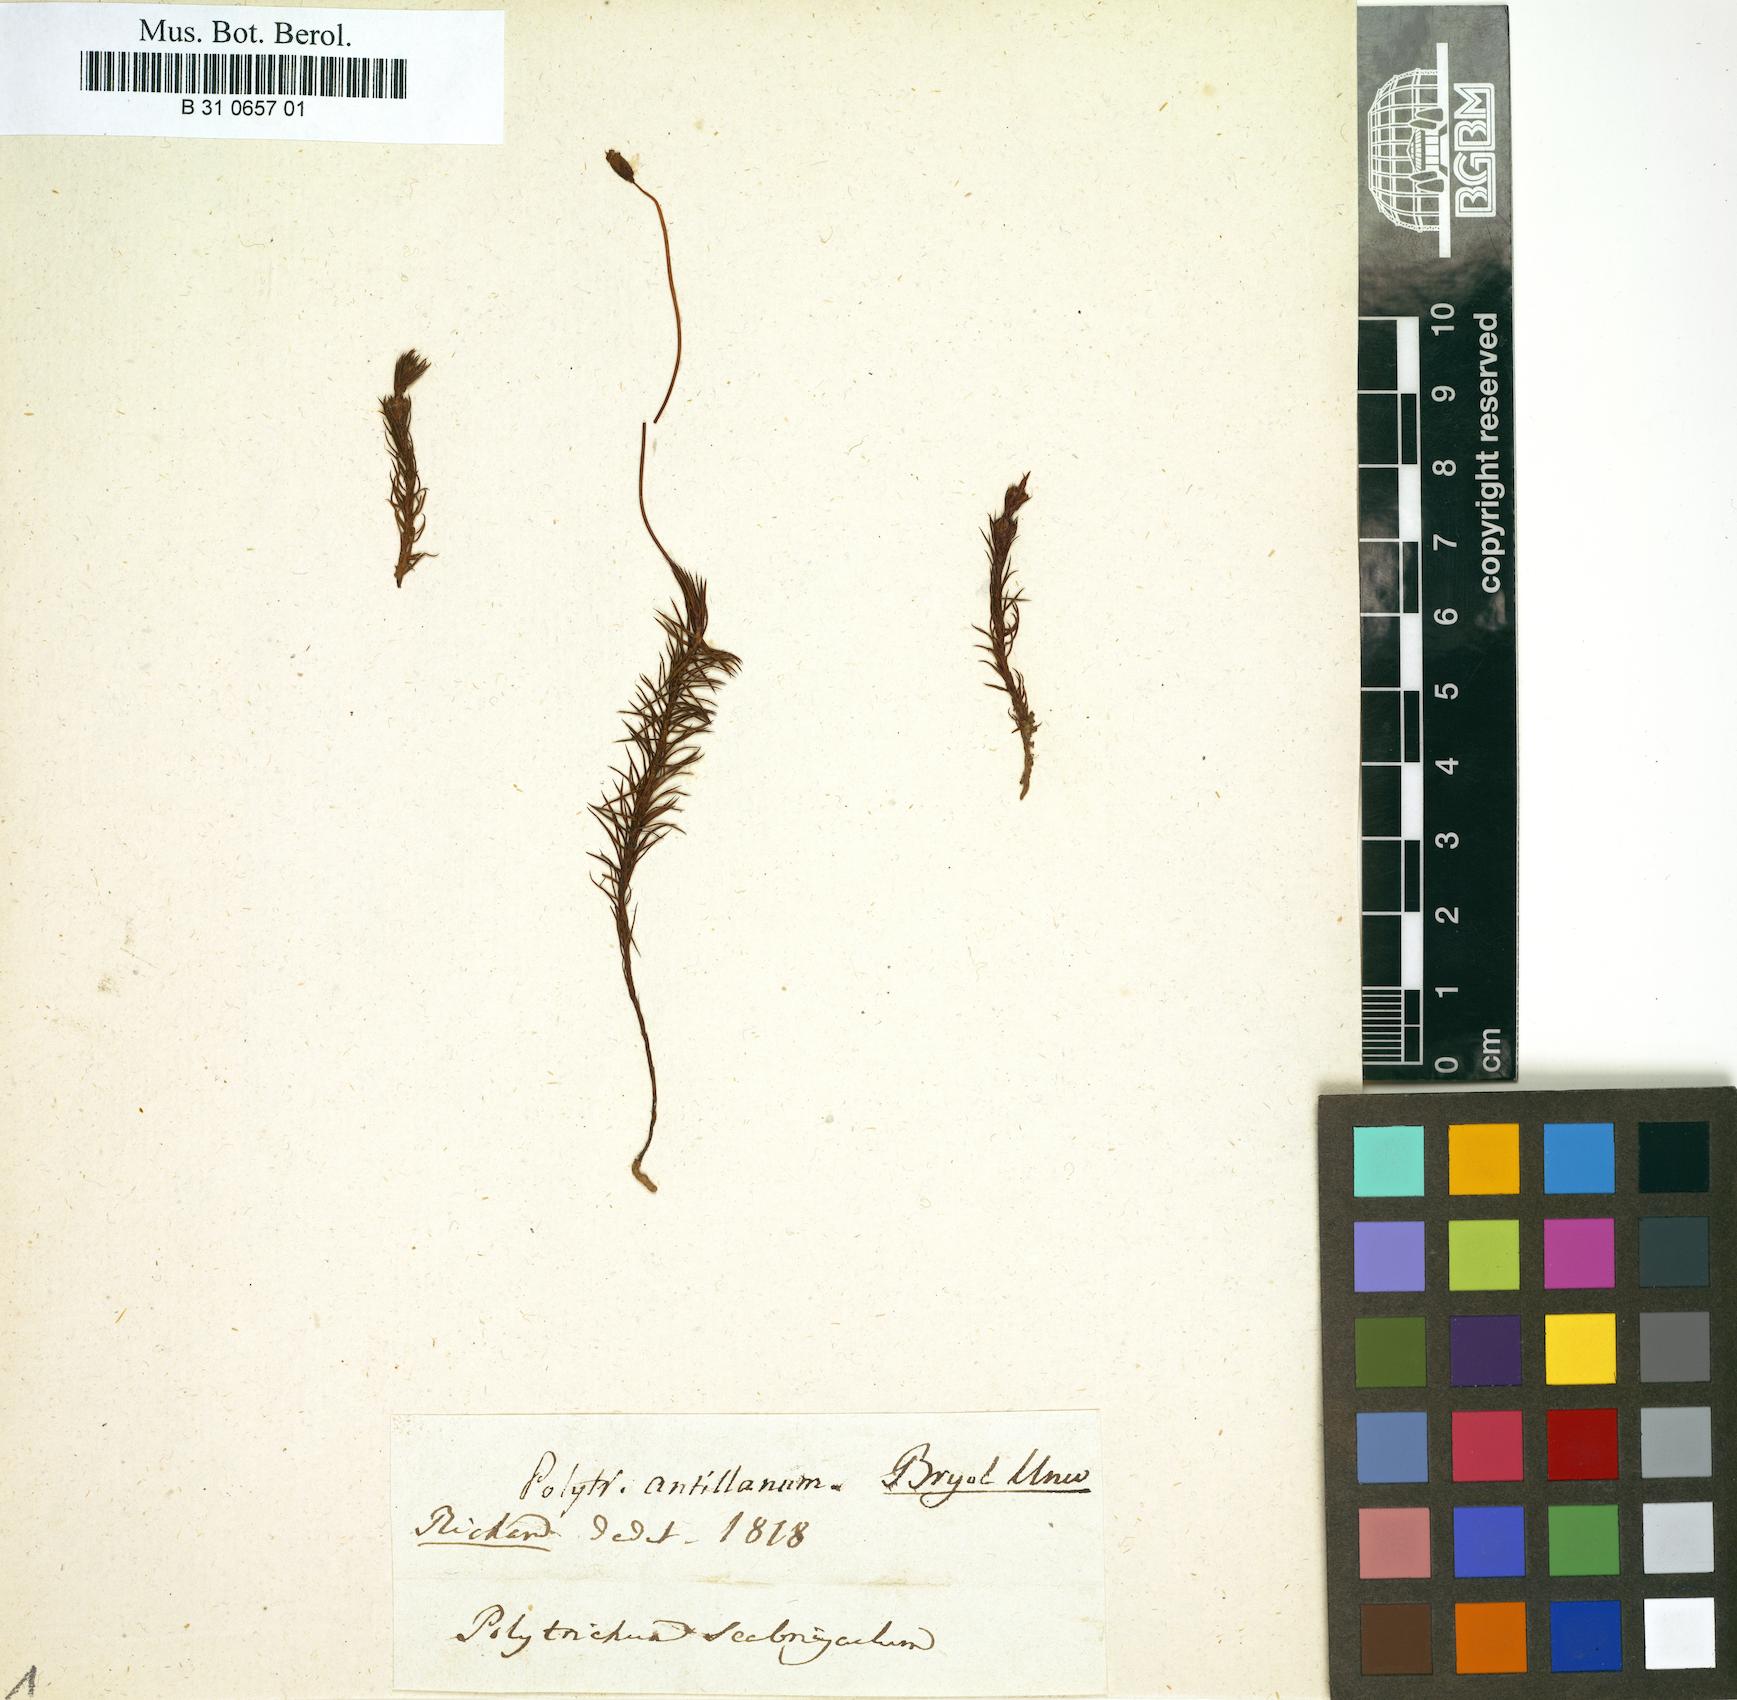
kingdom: Plantae
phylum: Bryophyta
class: Polytrichopsida
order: Polytrichales
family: Polytrichaceae
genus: Polytrichum
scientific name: Polytrichum juniperinum
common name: Juniper haircap moss
